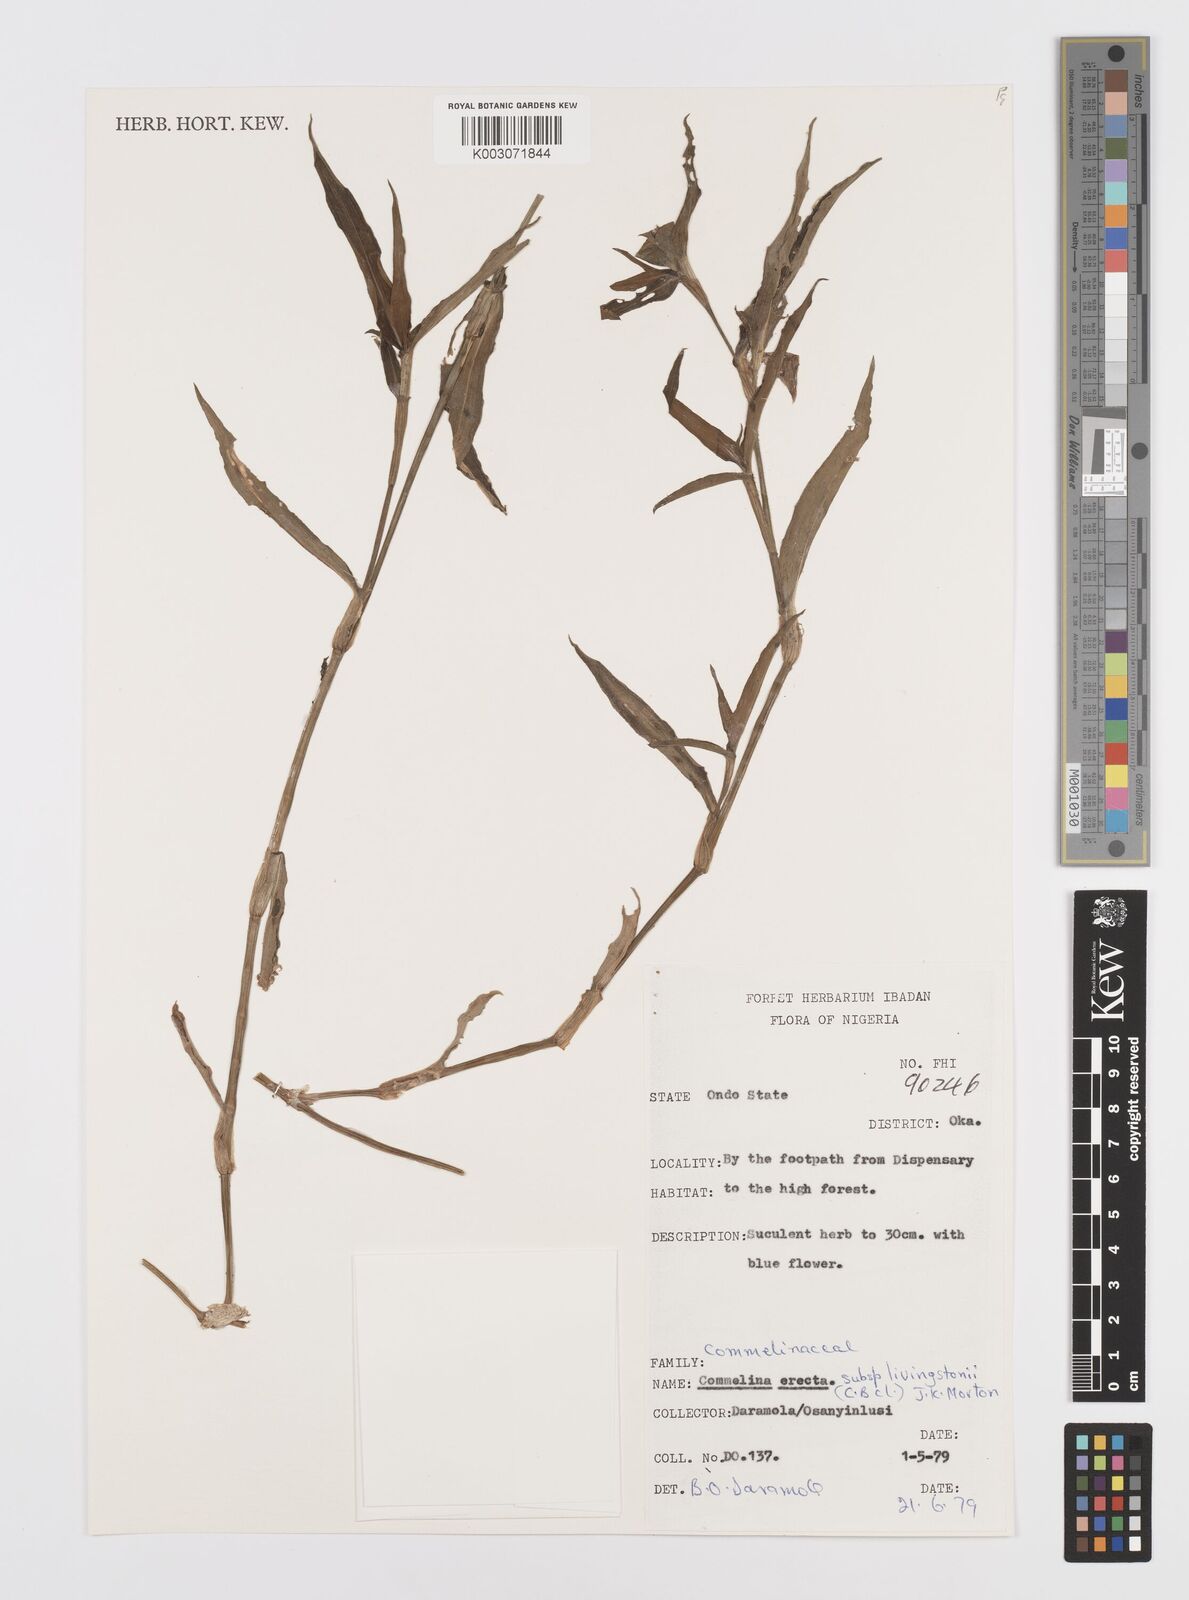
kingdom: Plantae
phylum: Tracheophyta
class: Liliopsida
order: Commelinales
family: Commelinaceae
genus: Commelina
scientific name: Commelina erecta
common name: Blousel blommetjie
